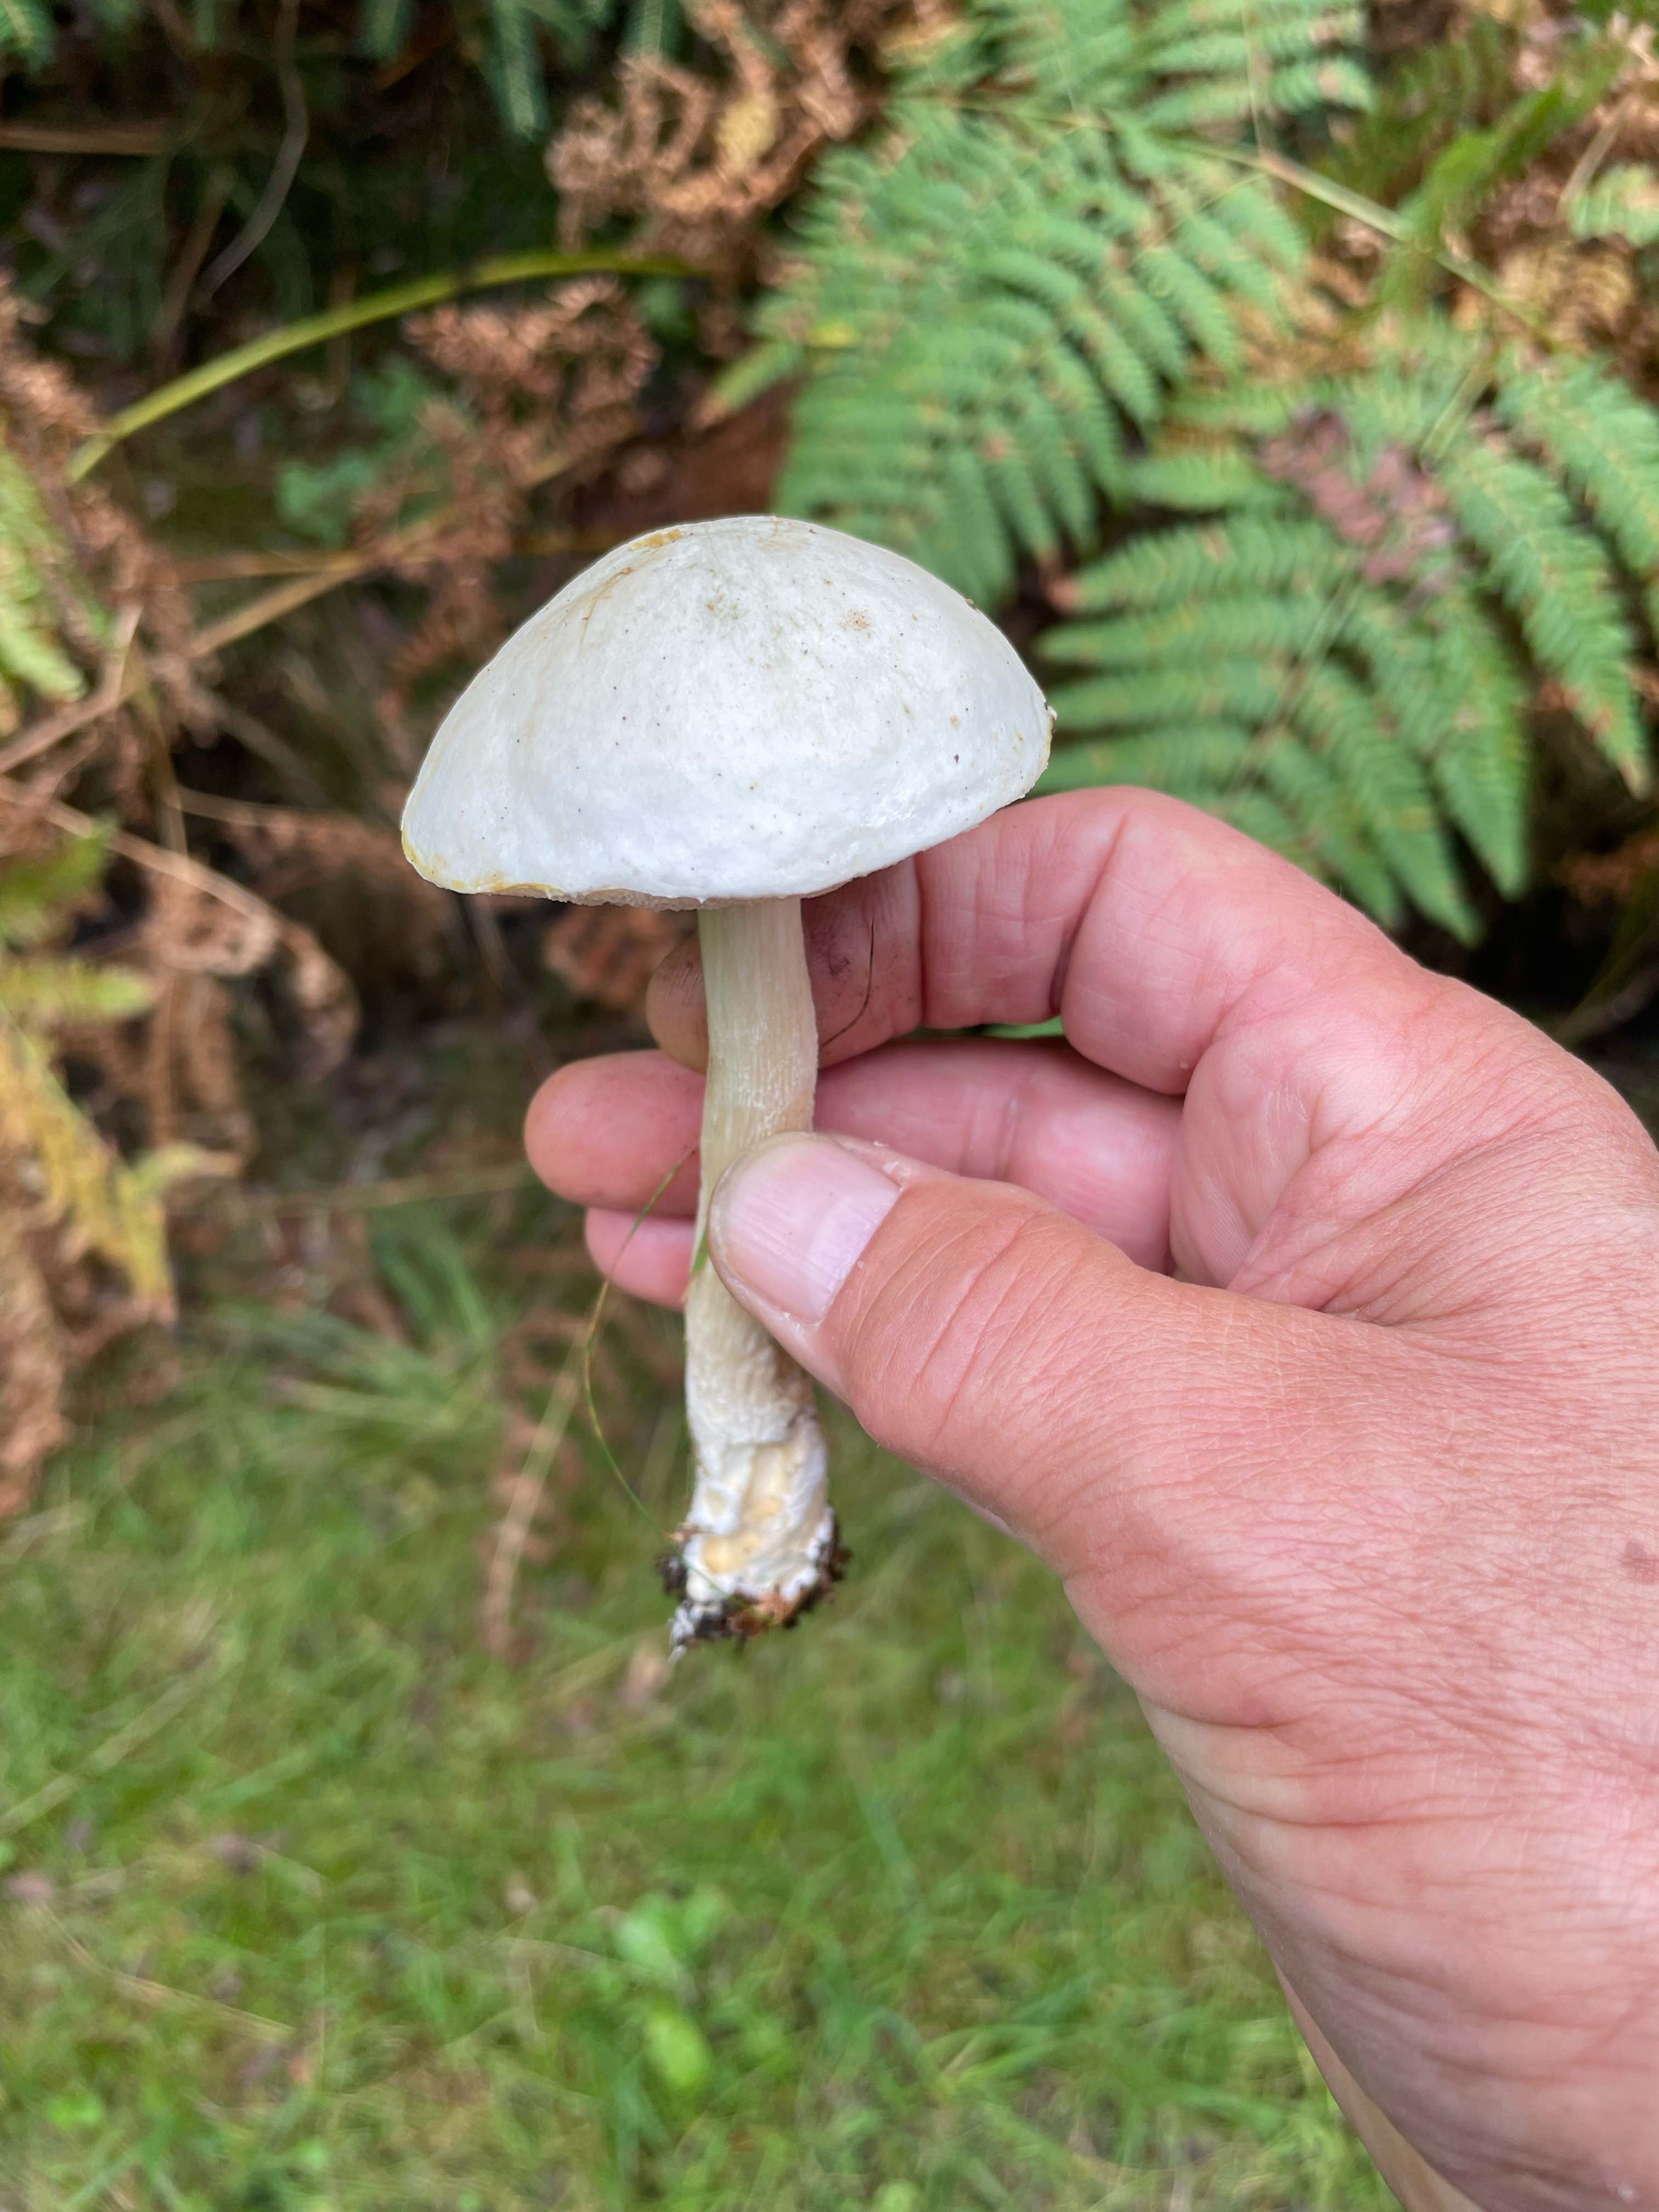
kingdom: Fungi
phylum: Basidiomycota
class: Agaricomycetes
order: Boletales
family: Boletaceae
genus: Leccinum
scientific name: Leccinum scabrum
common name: hvid skælrørhat
